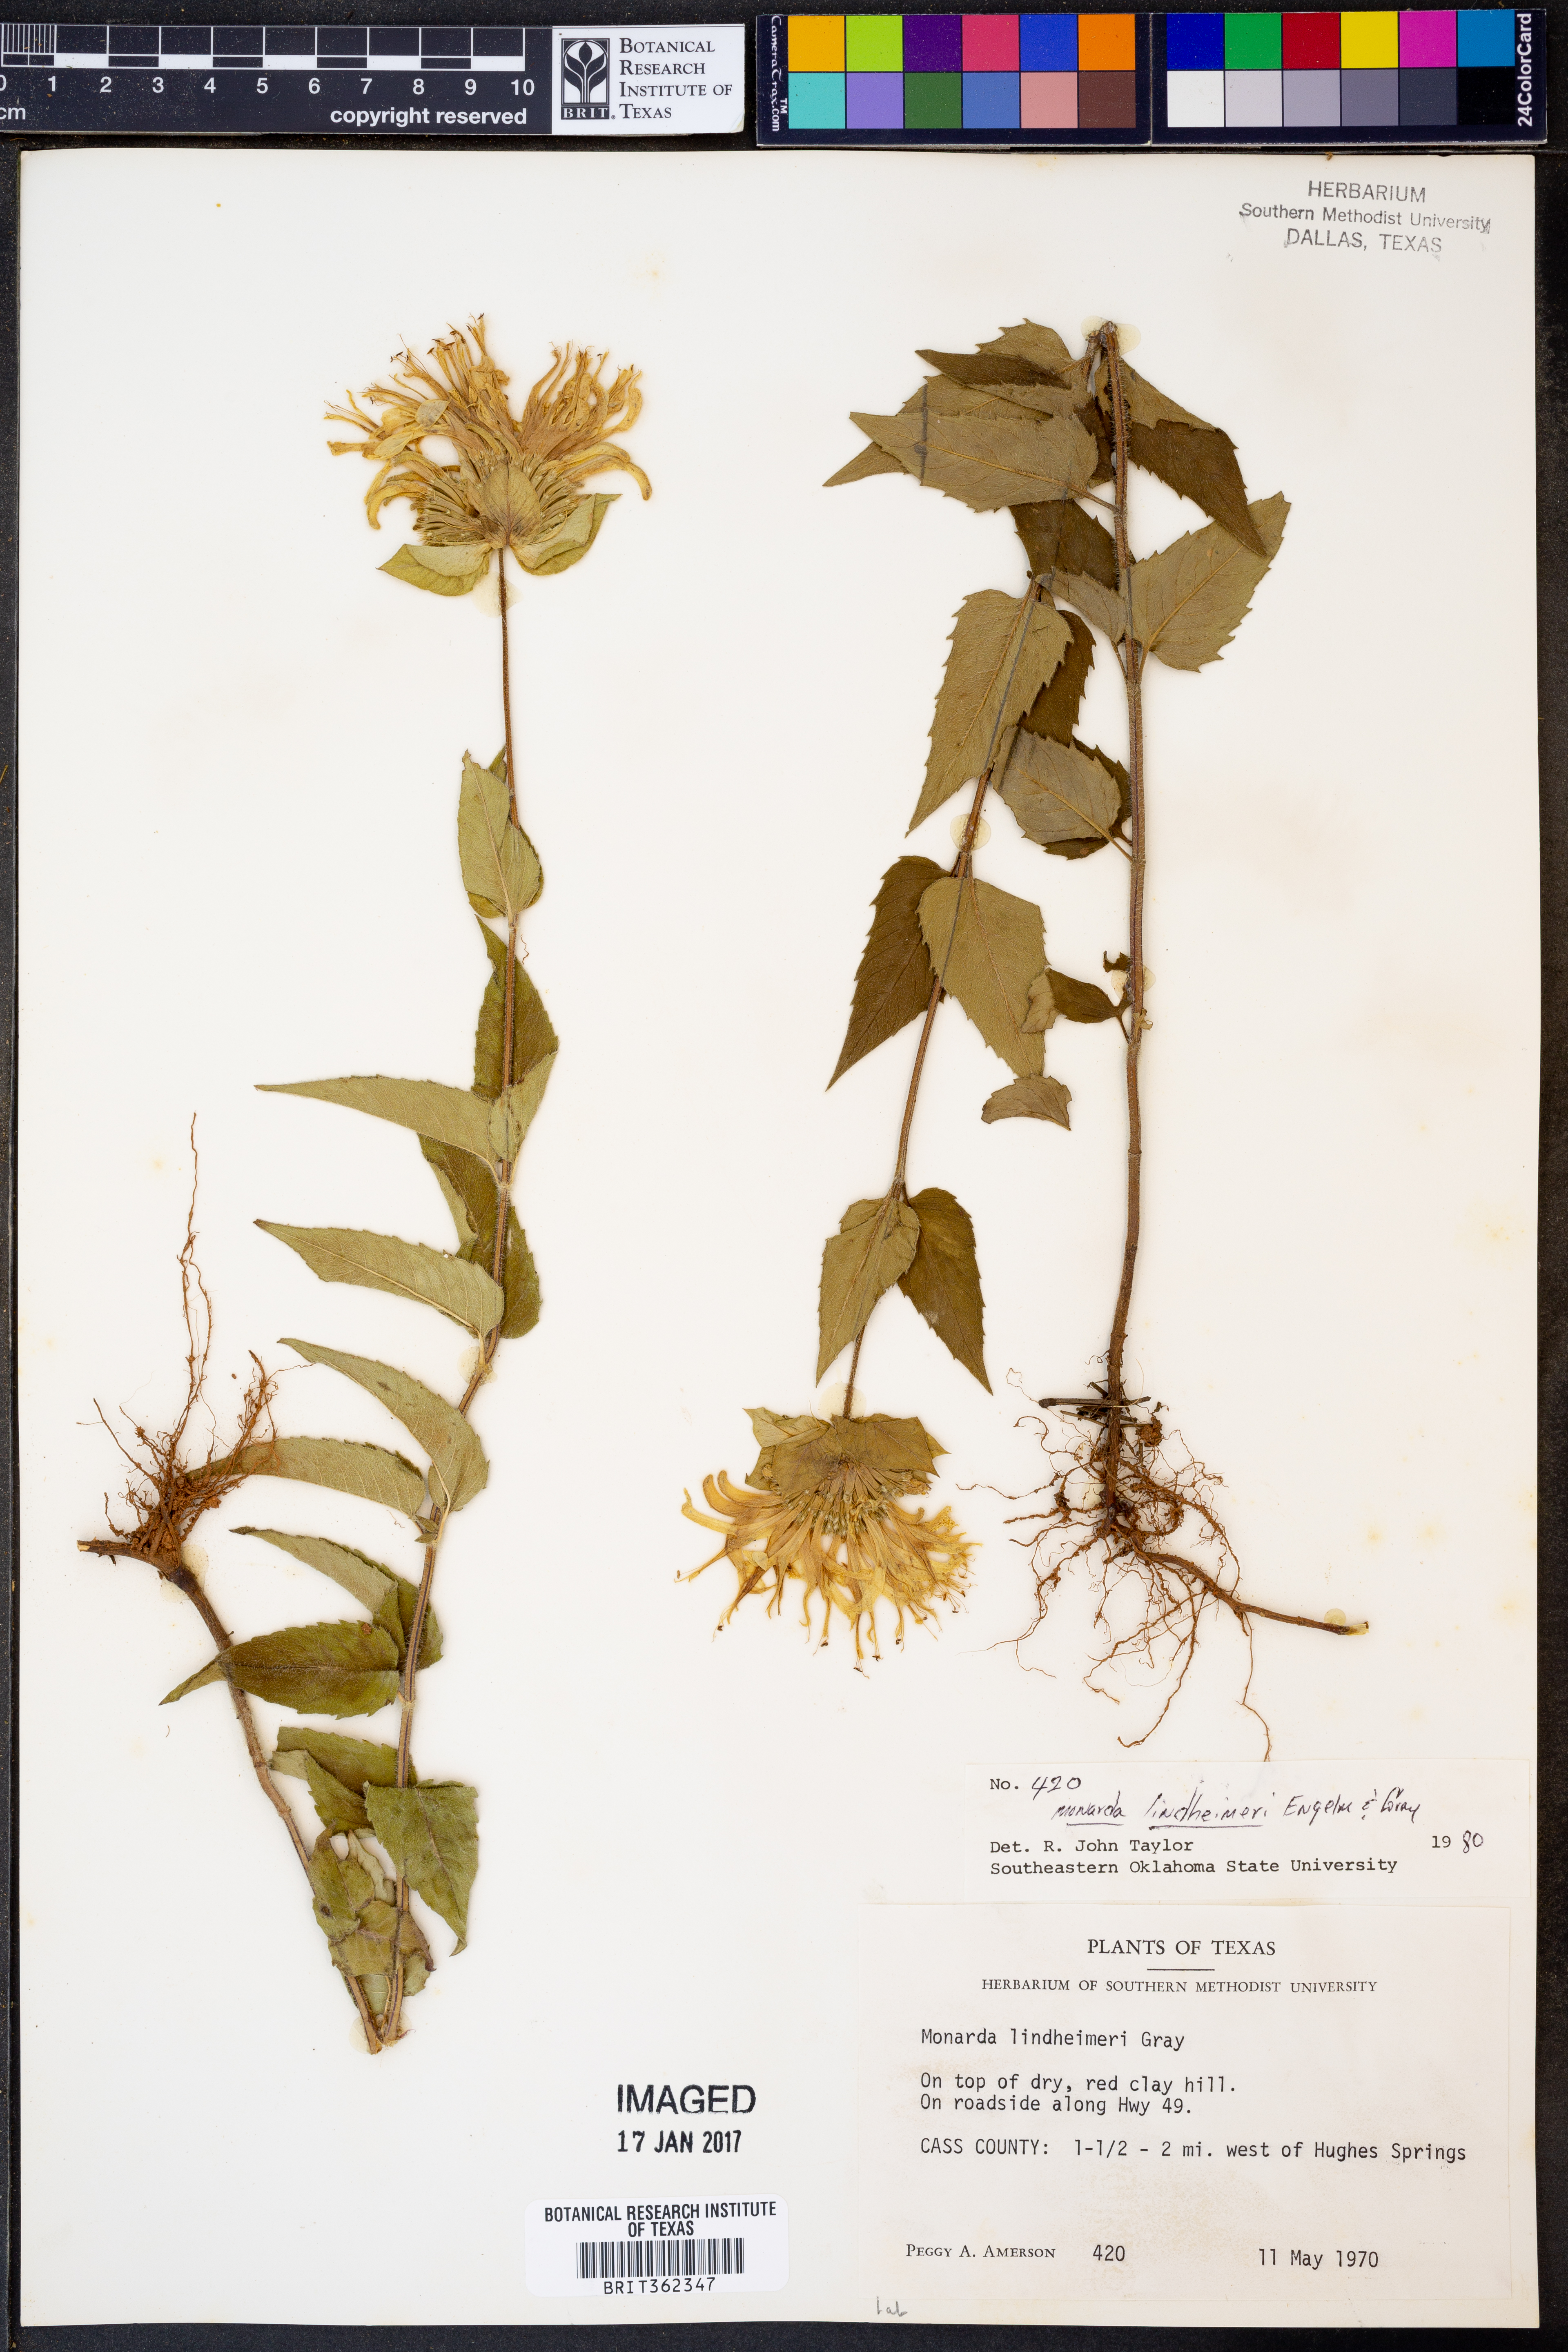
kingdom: Plantae
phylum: Tracheophyta
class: Magnoliopsida
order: Lamiales
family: Lamiaceae
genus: Monarda
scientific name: Monarda lindheimeri
